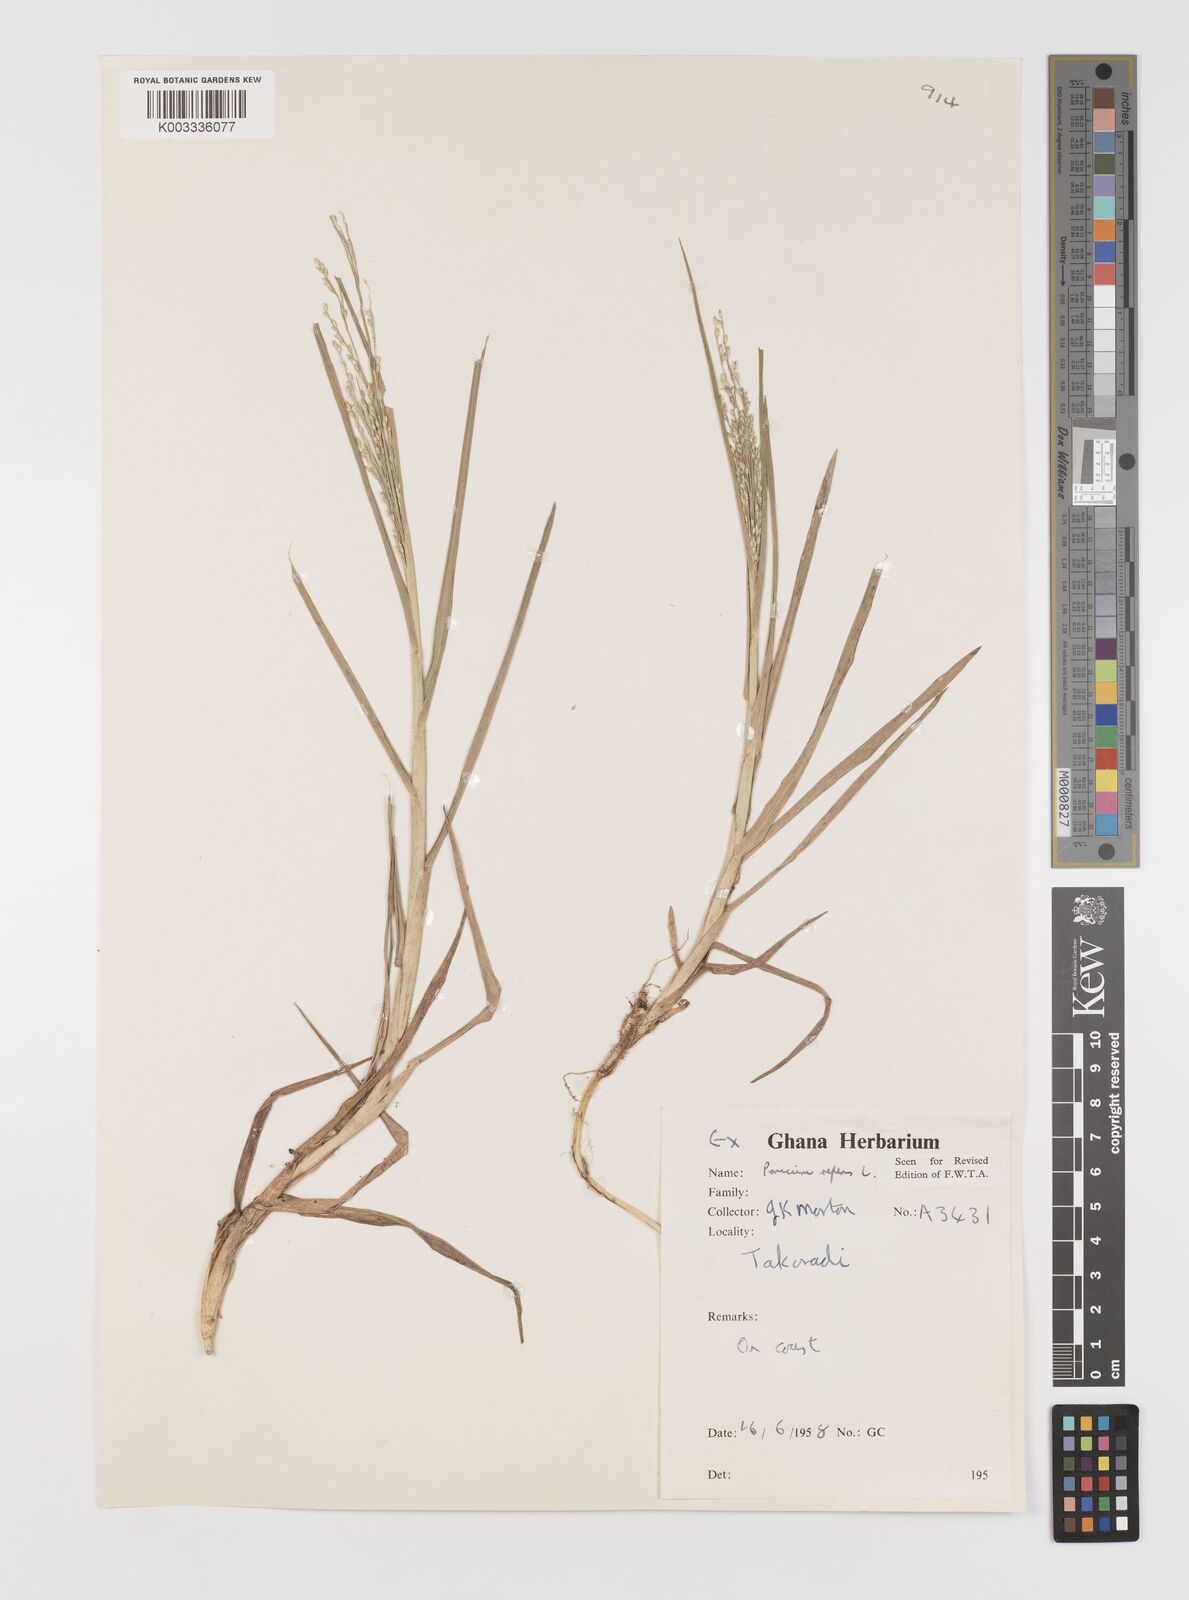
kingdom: Plantae
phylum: Tracheophyta
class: Liliopsida
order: Poales
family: Poaceae
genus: Panicum
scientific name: Panicum repens
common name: Torpedo grass
